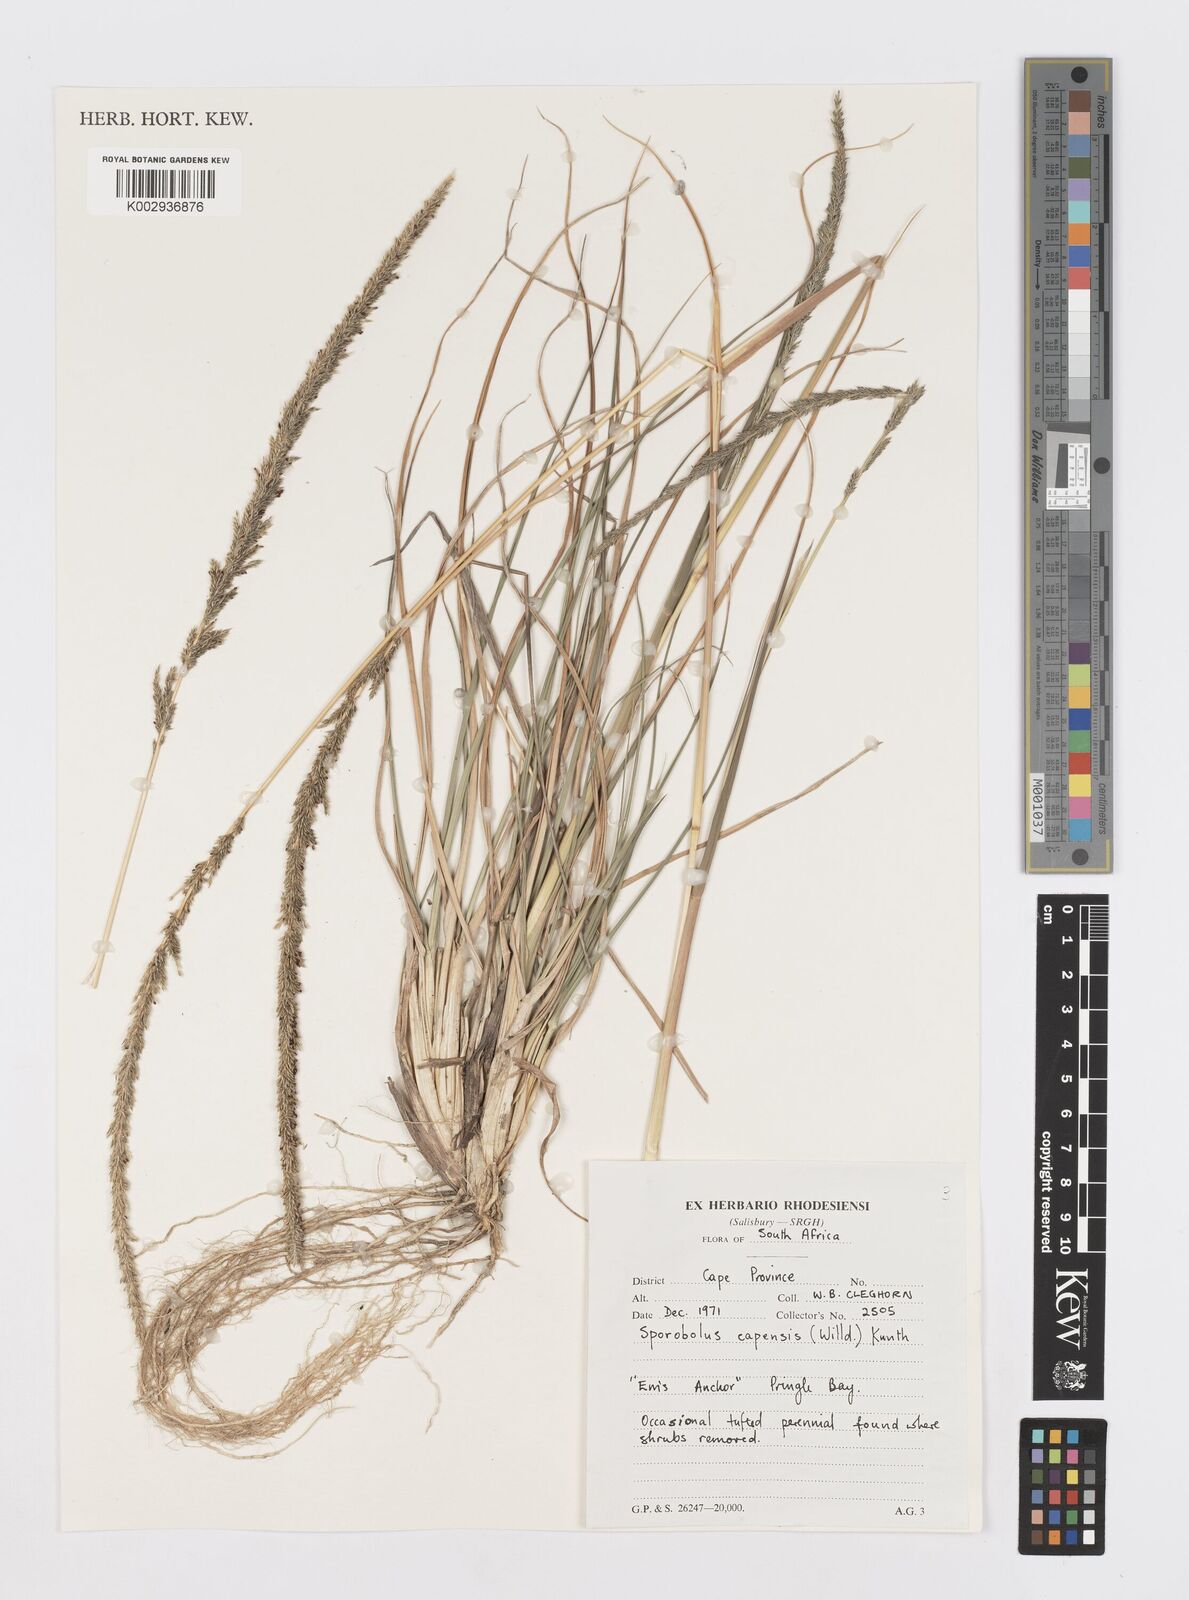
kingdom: Plantae
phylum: Tracheophyta
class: Liliopsida
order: Poales
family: Poaceae
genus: Sporobolus
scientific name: Sporobolus africanus
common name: African dropseed
